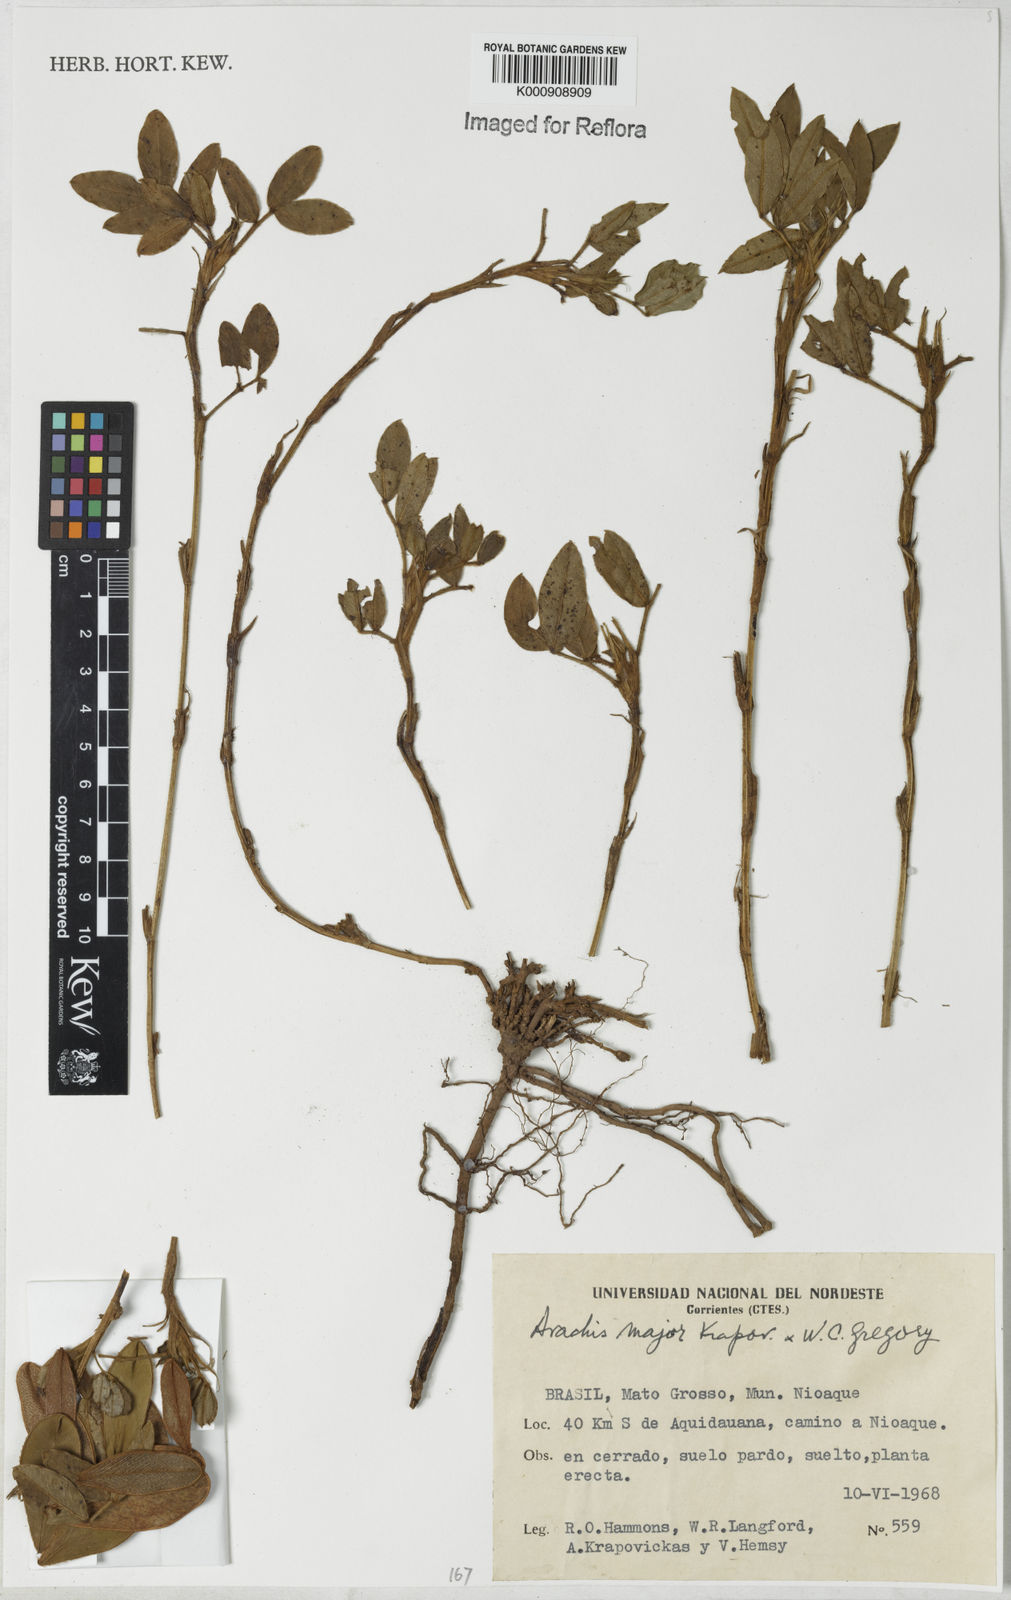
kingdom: Plantae
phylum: Tracheophyta
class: Magnoliopsida
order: Fabales
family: Fabaceae
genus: Arachis
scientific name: Arachis major
